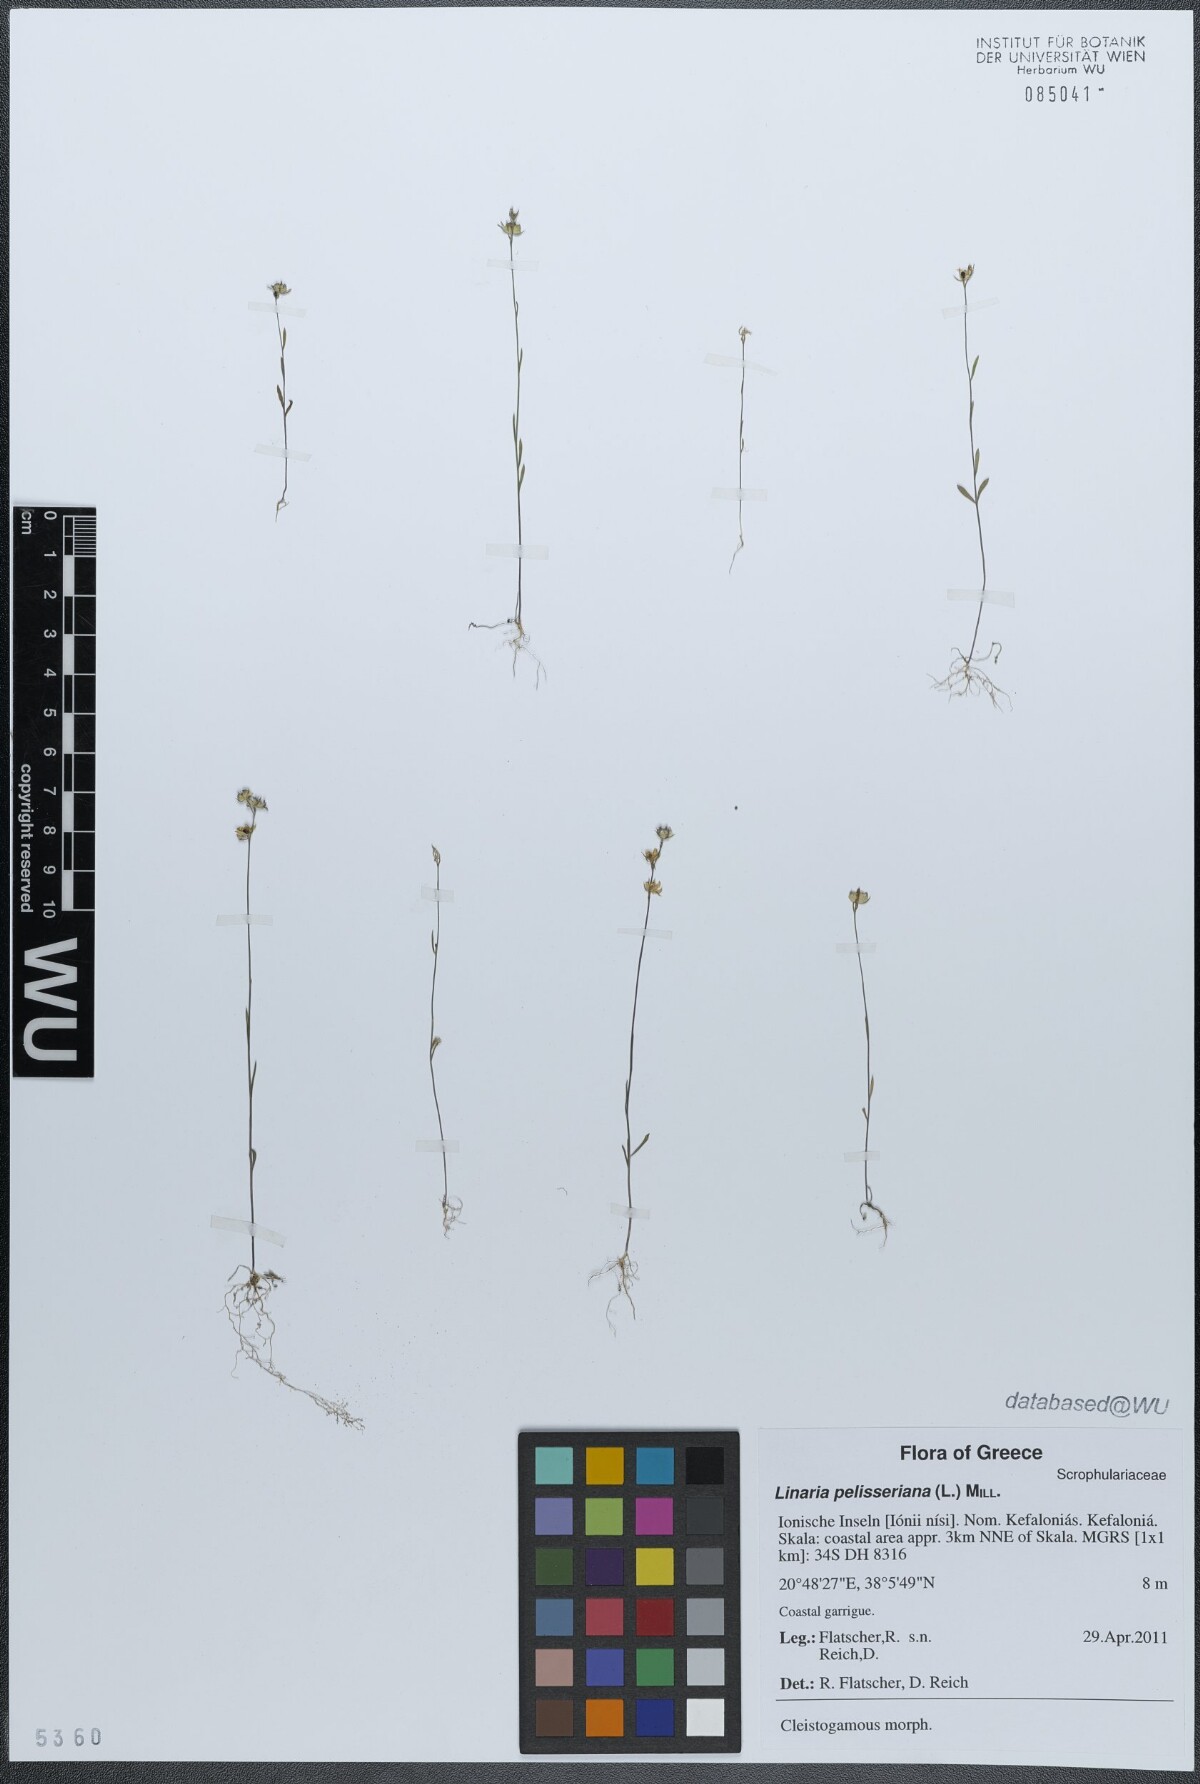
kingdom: Plantae
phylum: Tracheophyta
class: Magnoliopsida
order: Lamiales
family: Plantaginaceae
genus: Linaria
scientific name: Linaria pelisseriana
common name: Jersey toadflax
